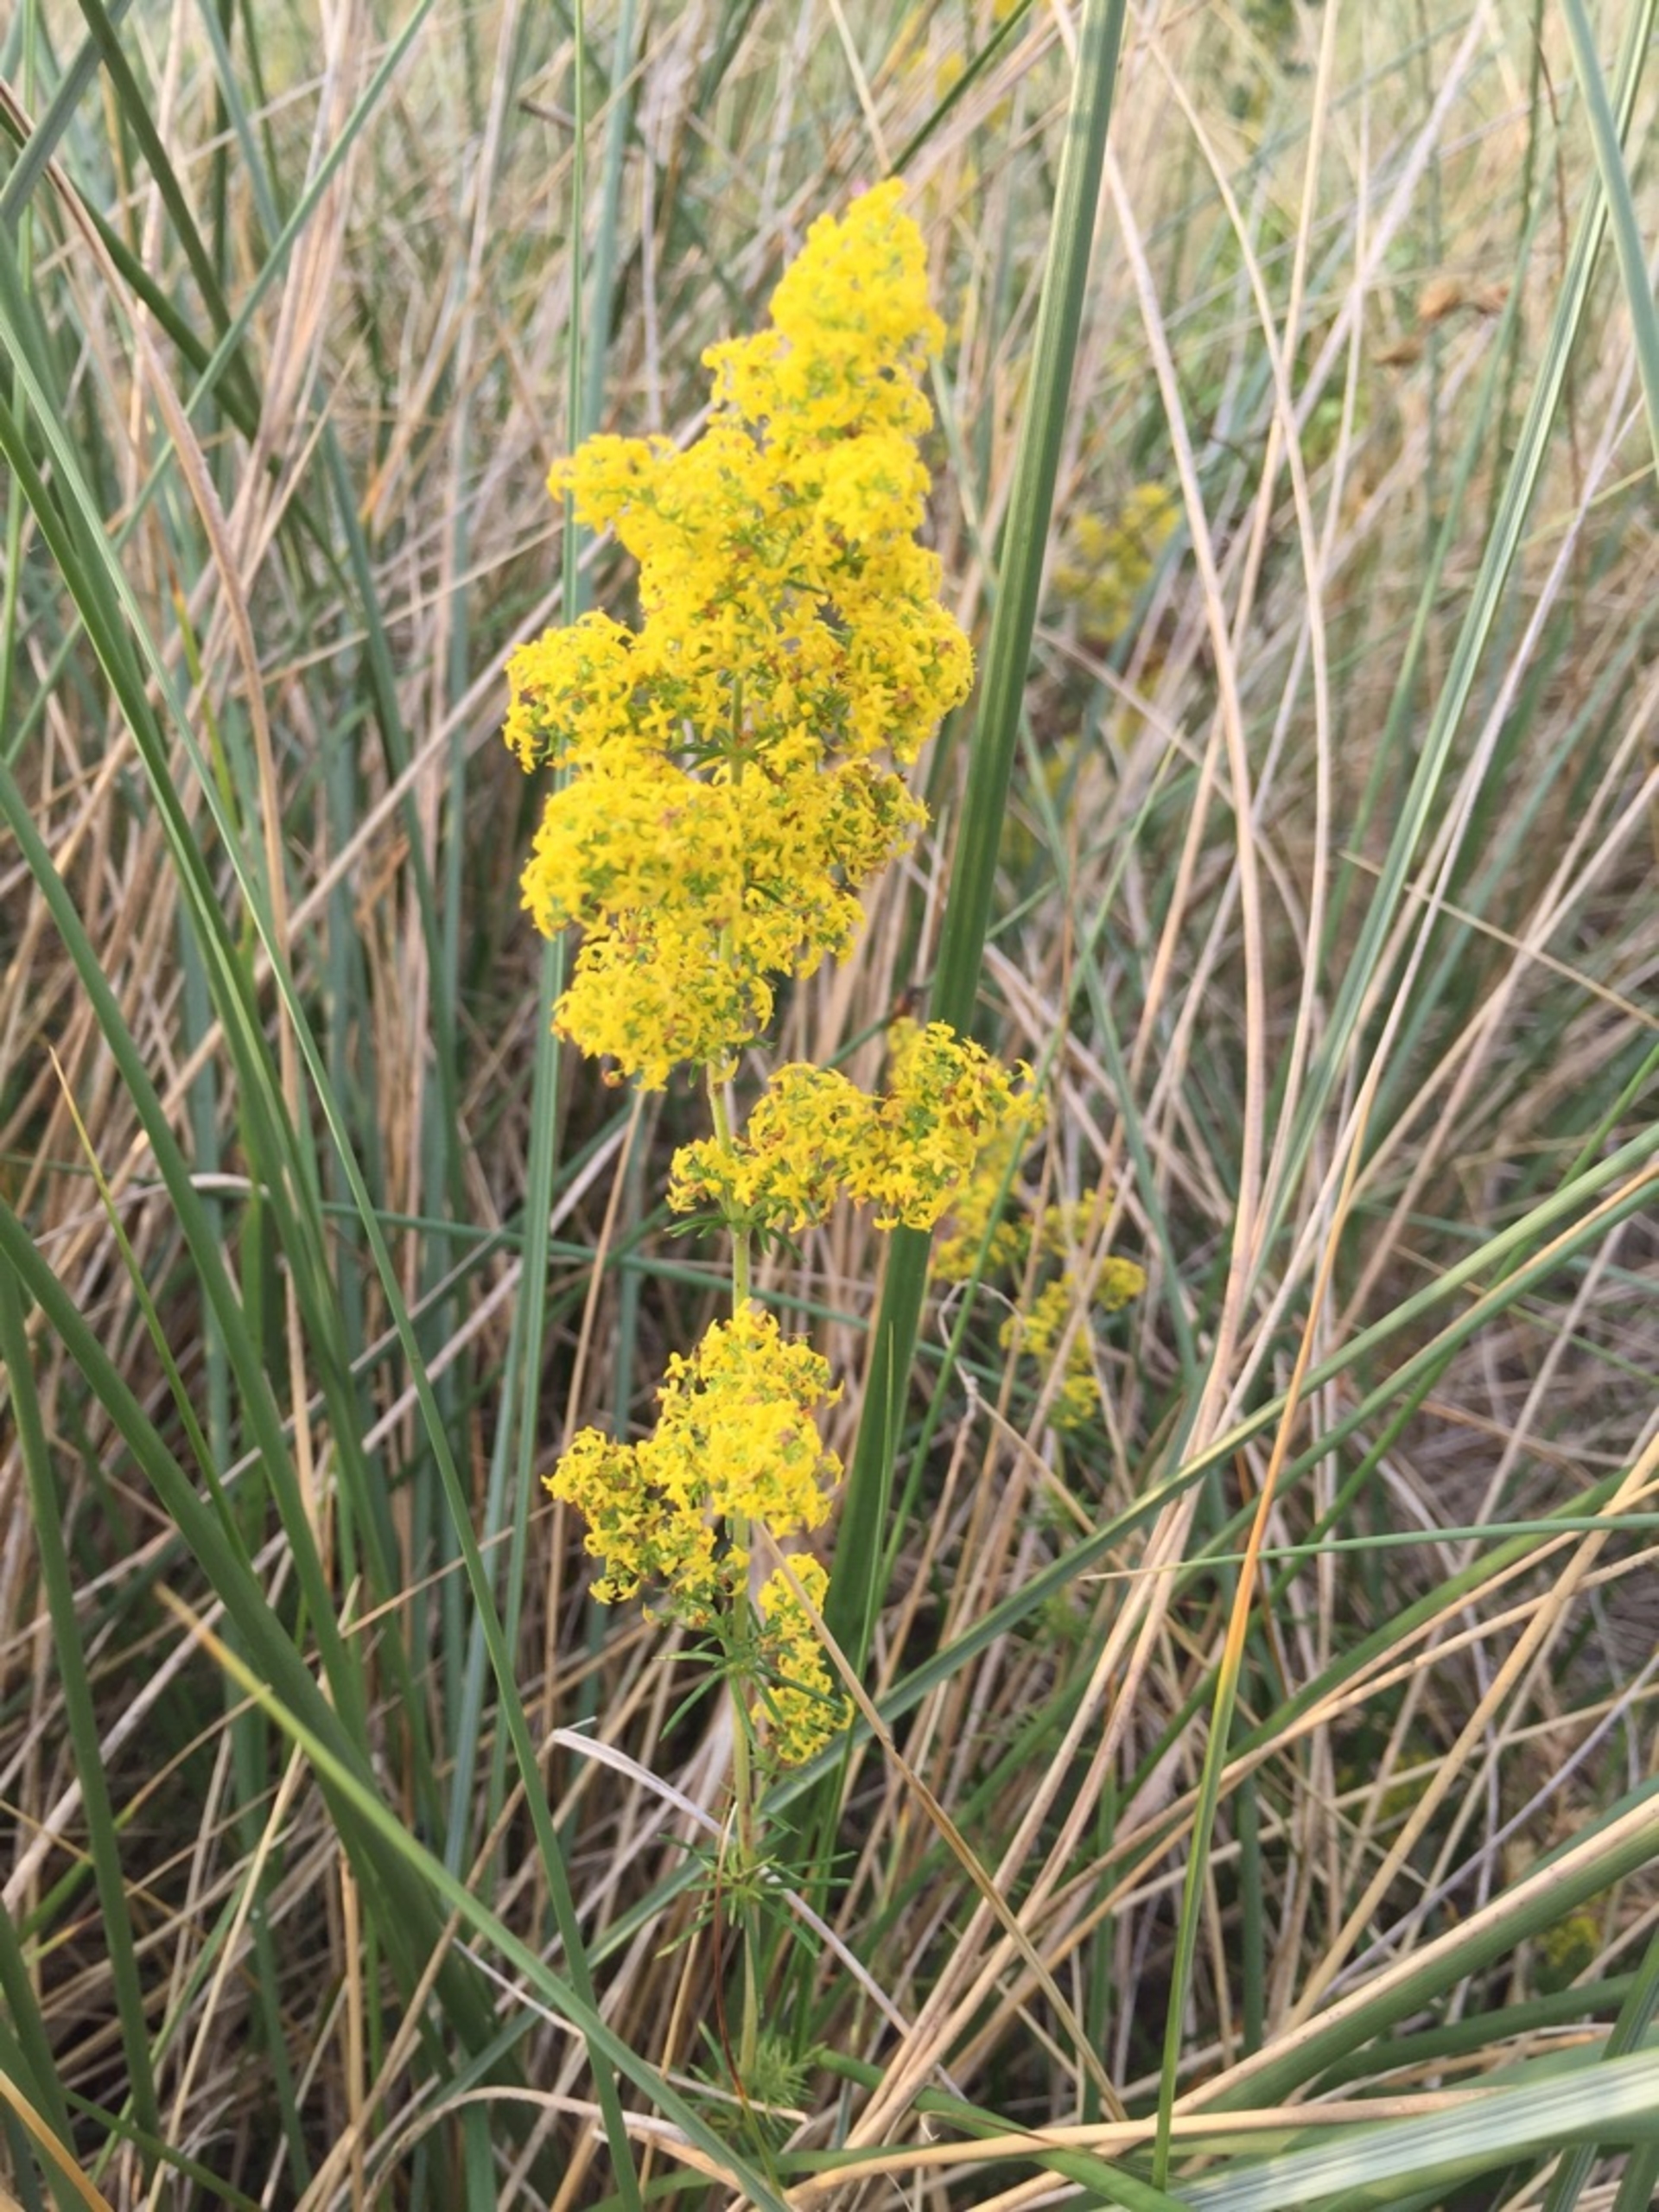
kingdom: Plantae
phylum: Tracheophyta
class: Magnoliopsida
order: Gentianales
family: Rubiaceae
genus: Galium
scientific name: Galium verum
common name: Gul snerre
